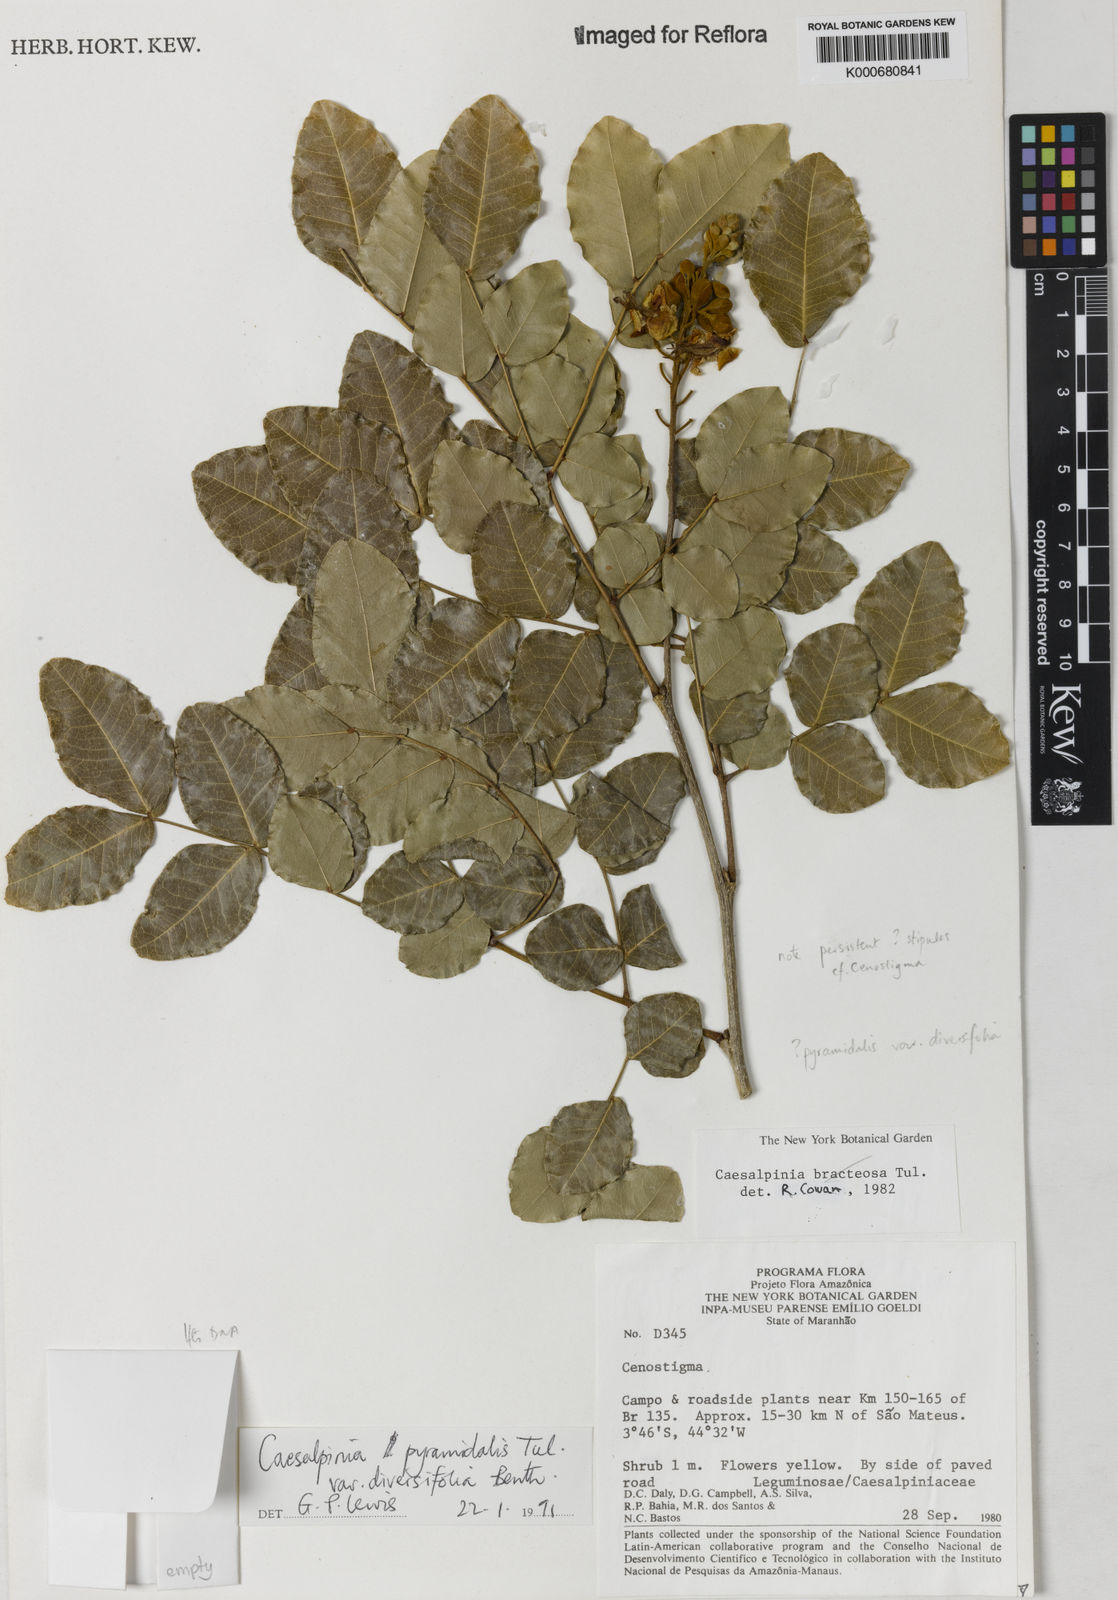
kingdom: Plantae
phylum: Tracheophyta
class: Magnoliopsida
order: Fabales
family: Fabaceae
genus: Cenostigma
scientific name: Cenostigma diversifolium
